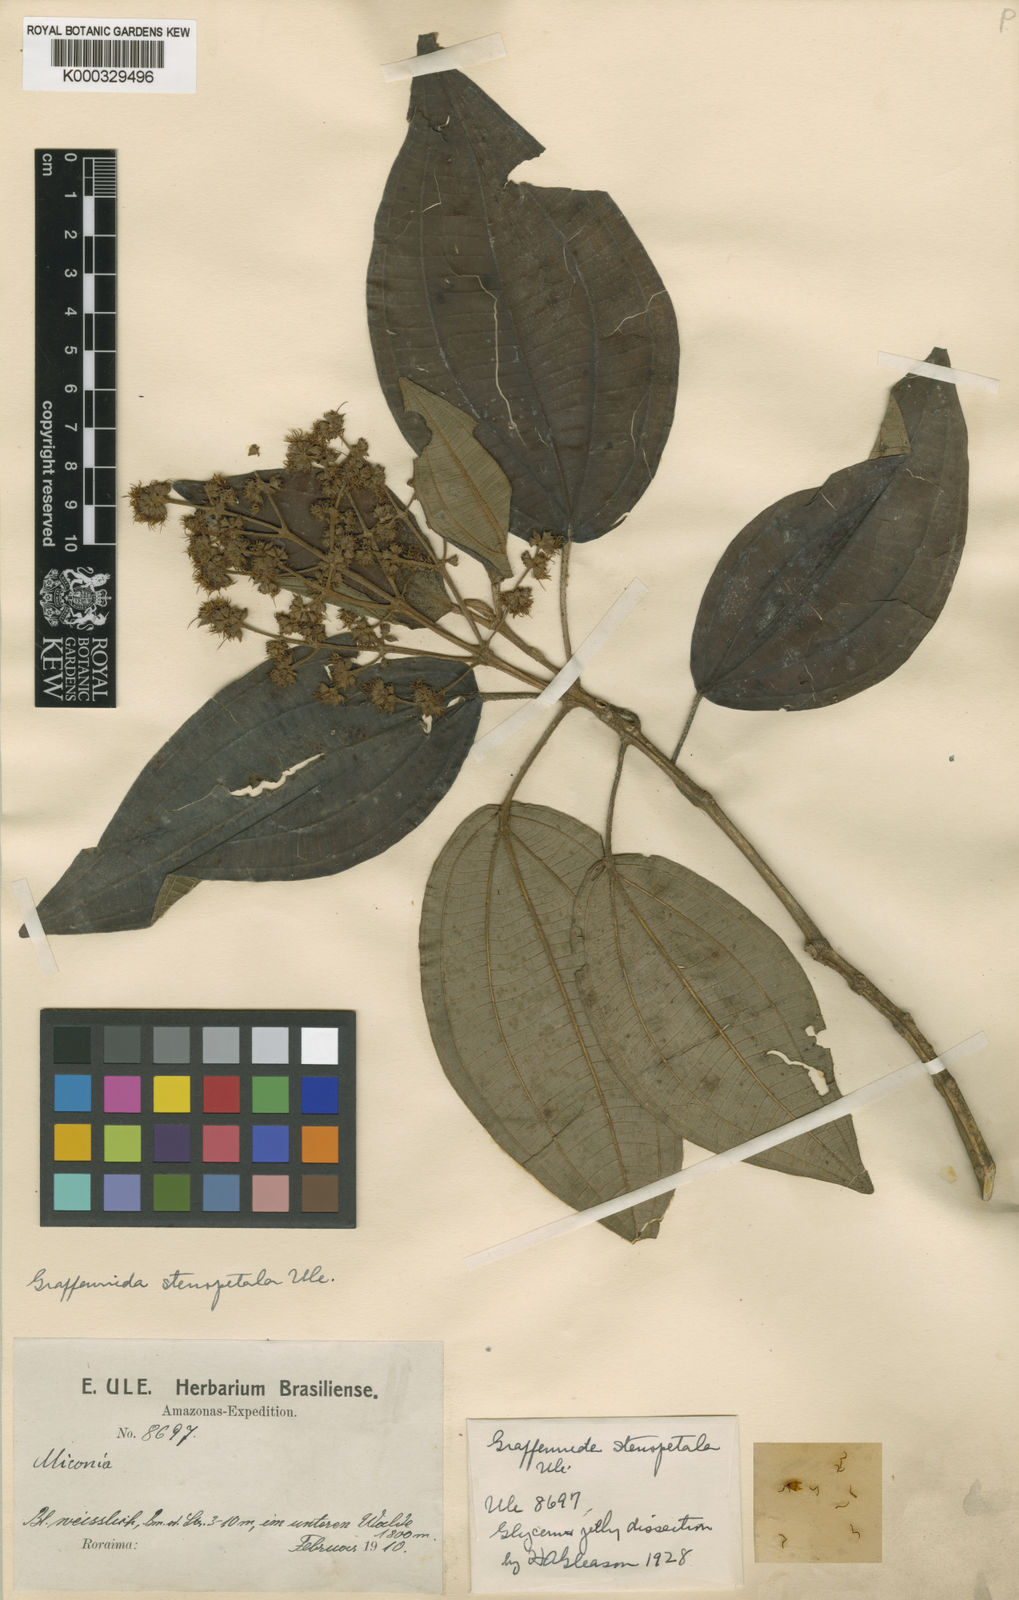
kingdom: Plantae
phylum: Tracheophyta
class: Magnoliopsida
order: Myrtales
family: Melastomataceae
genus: Graffenrieda
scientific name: Graffenrieda intermedia
